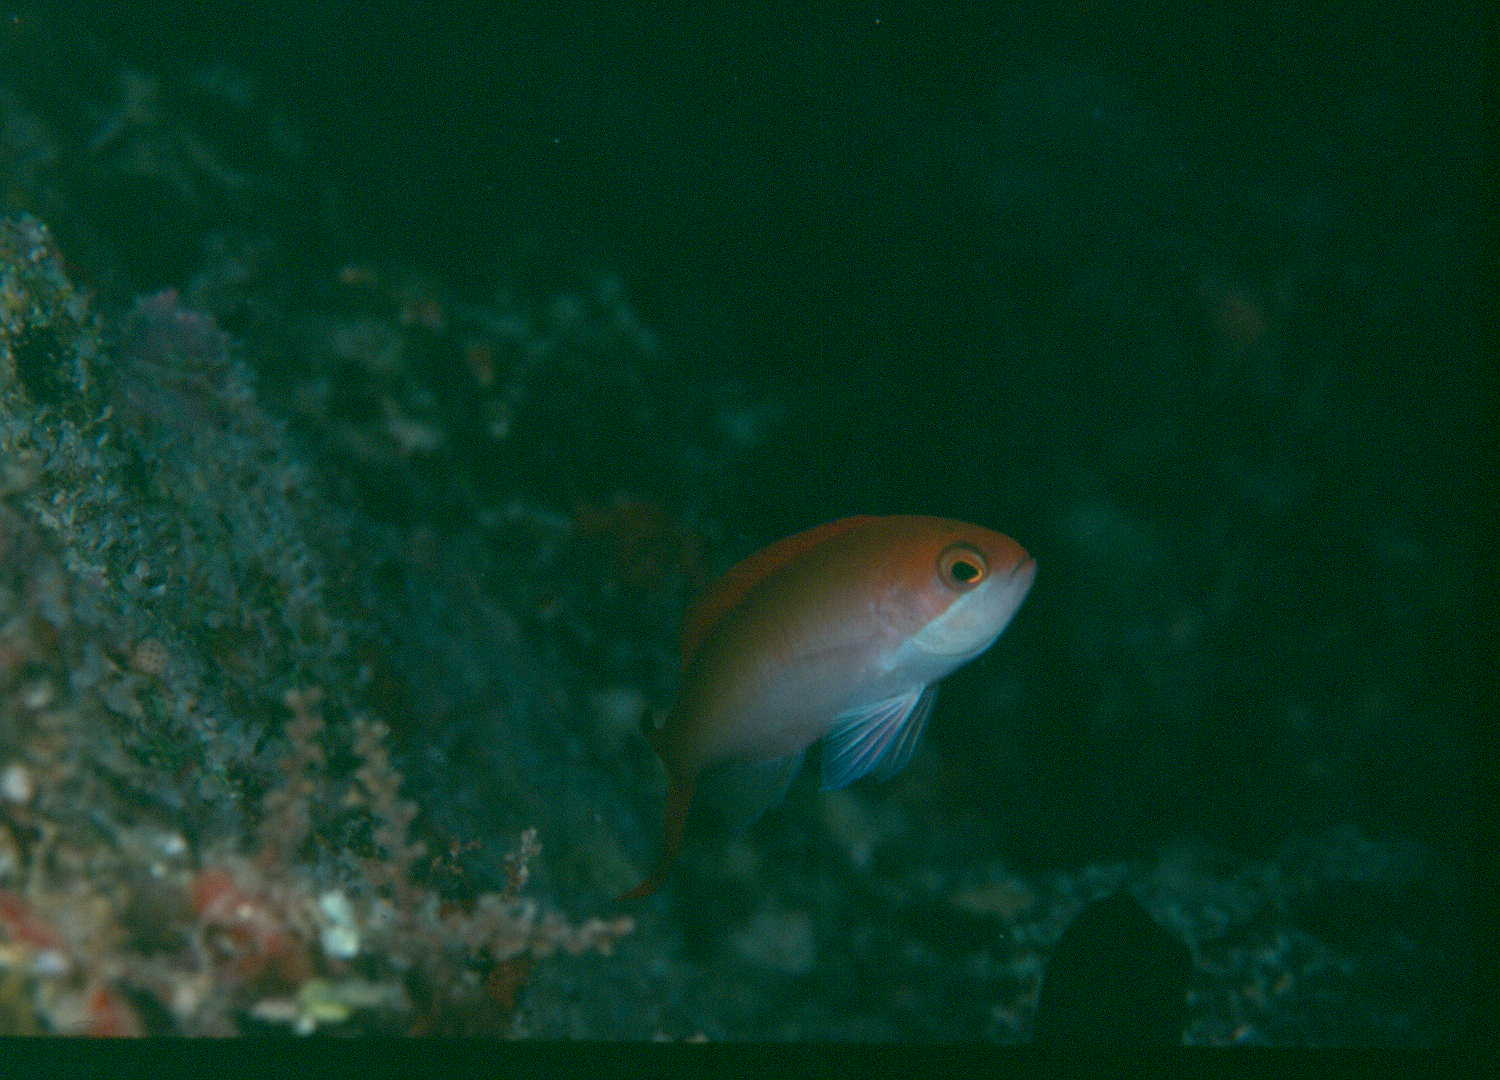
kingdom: Animalia
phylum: Chordata
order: Perciformes
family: Serranidae
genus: Pseudanthias
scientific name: Pseudanthias cooperi
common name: Red basslet
